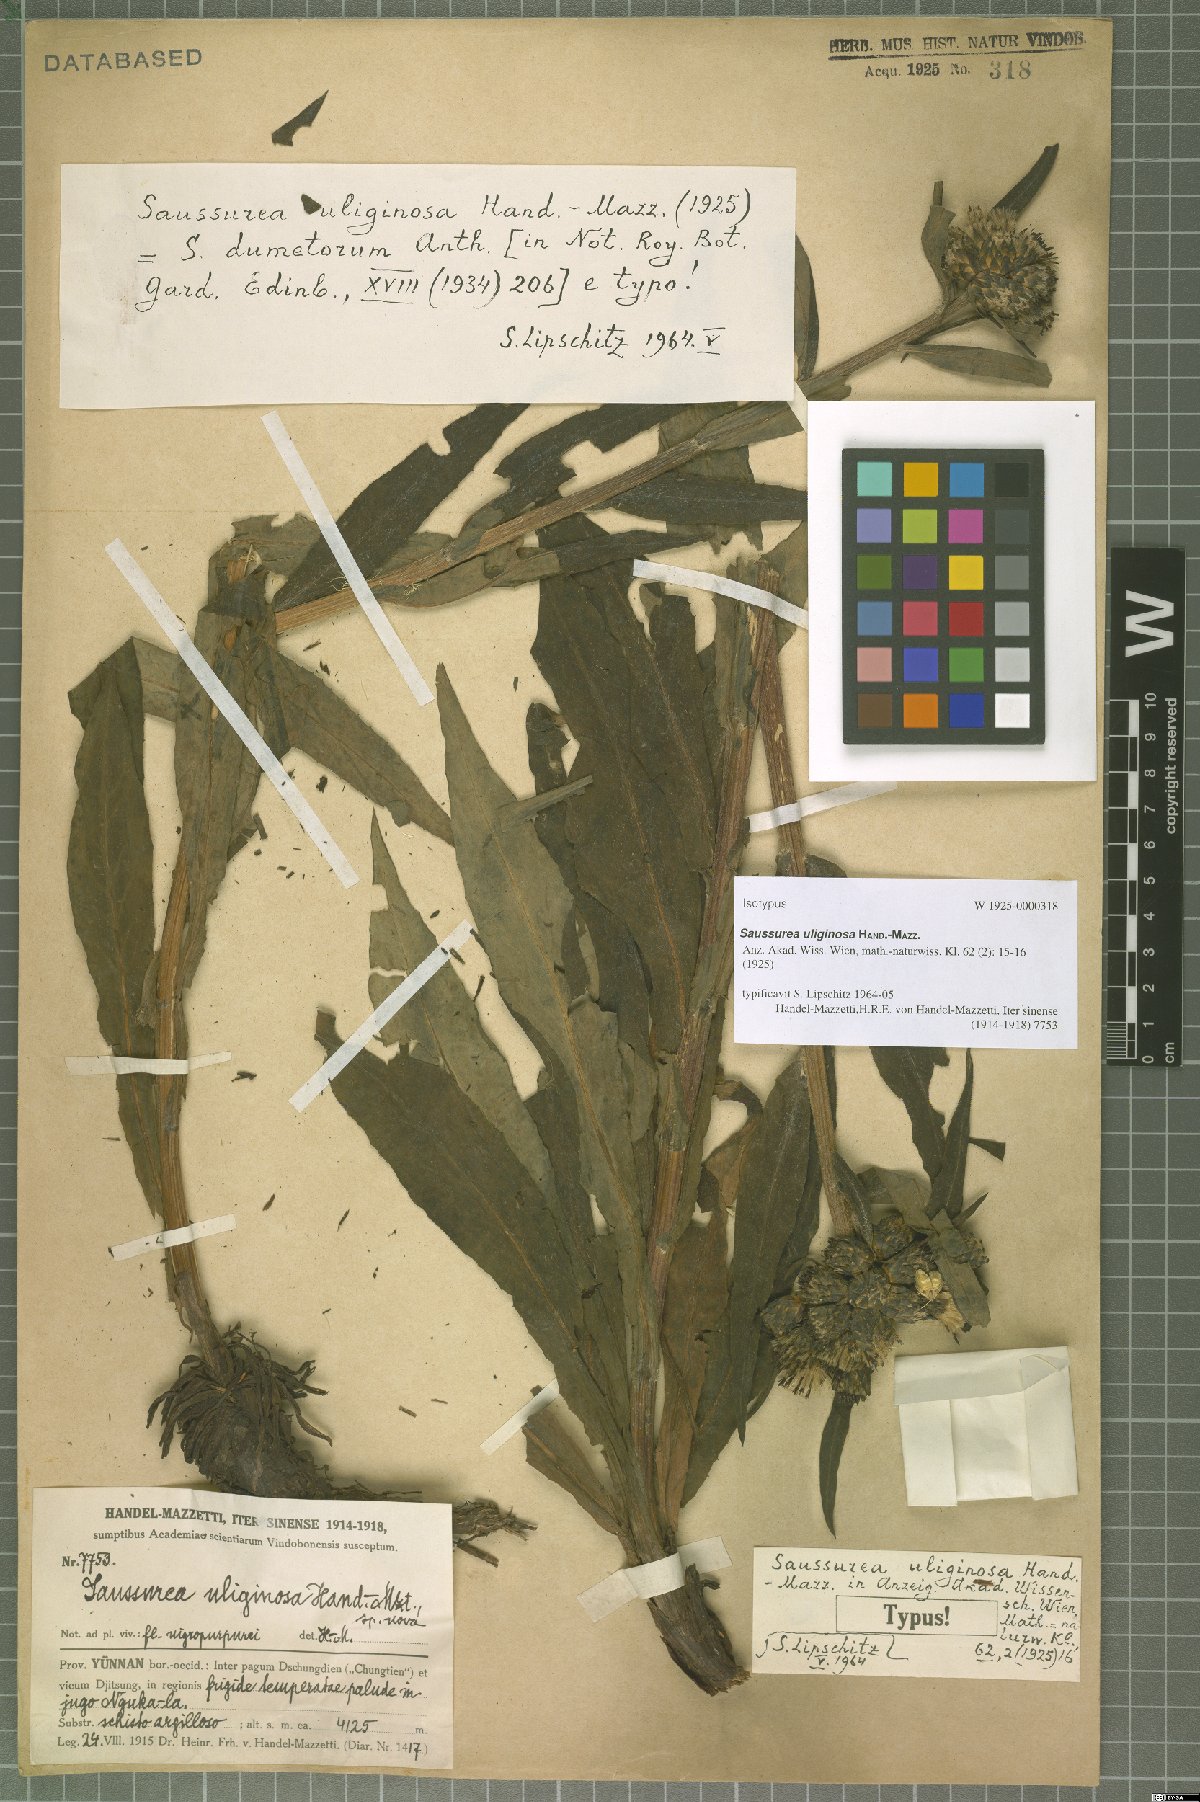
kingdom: Plantae
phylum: Tracheophyta
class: Magnoliopsida
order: Asterales
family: Asteraceae
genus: Saussurea
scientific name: Saussurea uliginosa
